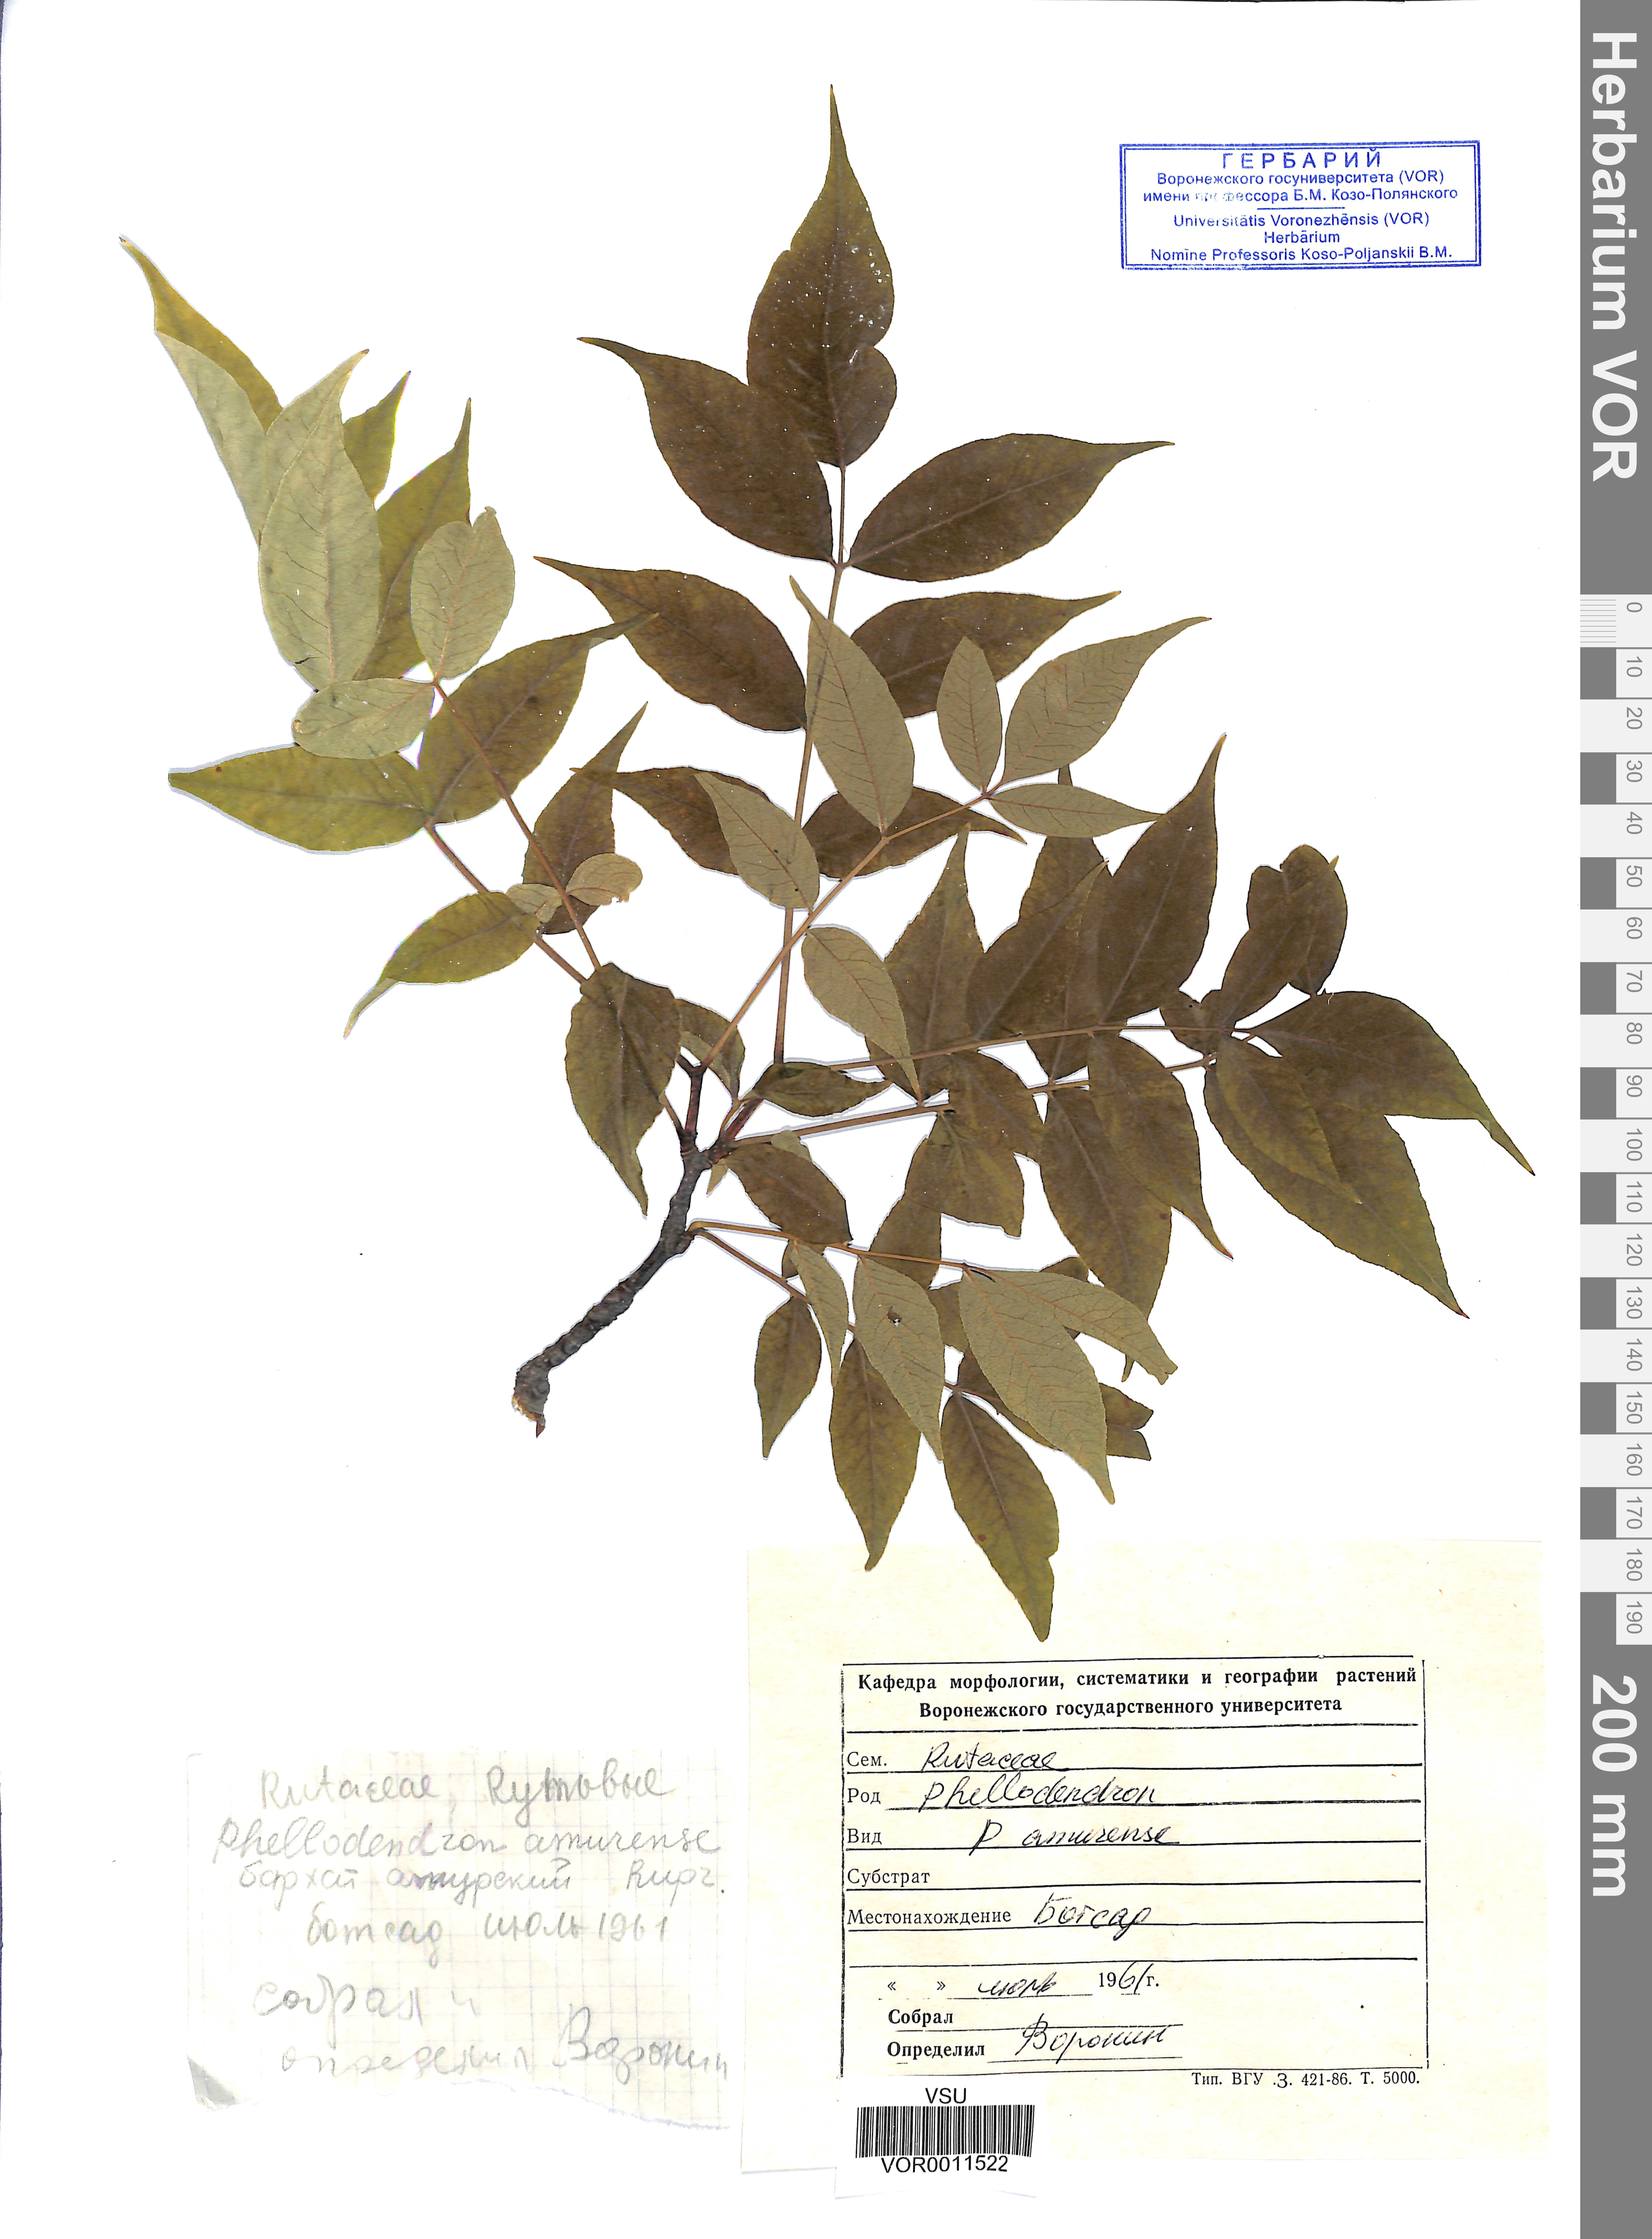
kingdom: Plantae
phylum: Tracheophyta
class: Magnoliopsida
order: Sapindales
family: Rutaceae
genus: Phellodendron
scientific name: Phellodendron amurense
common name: Amur corktree
